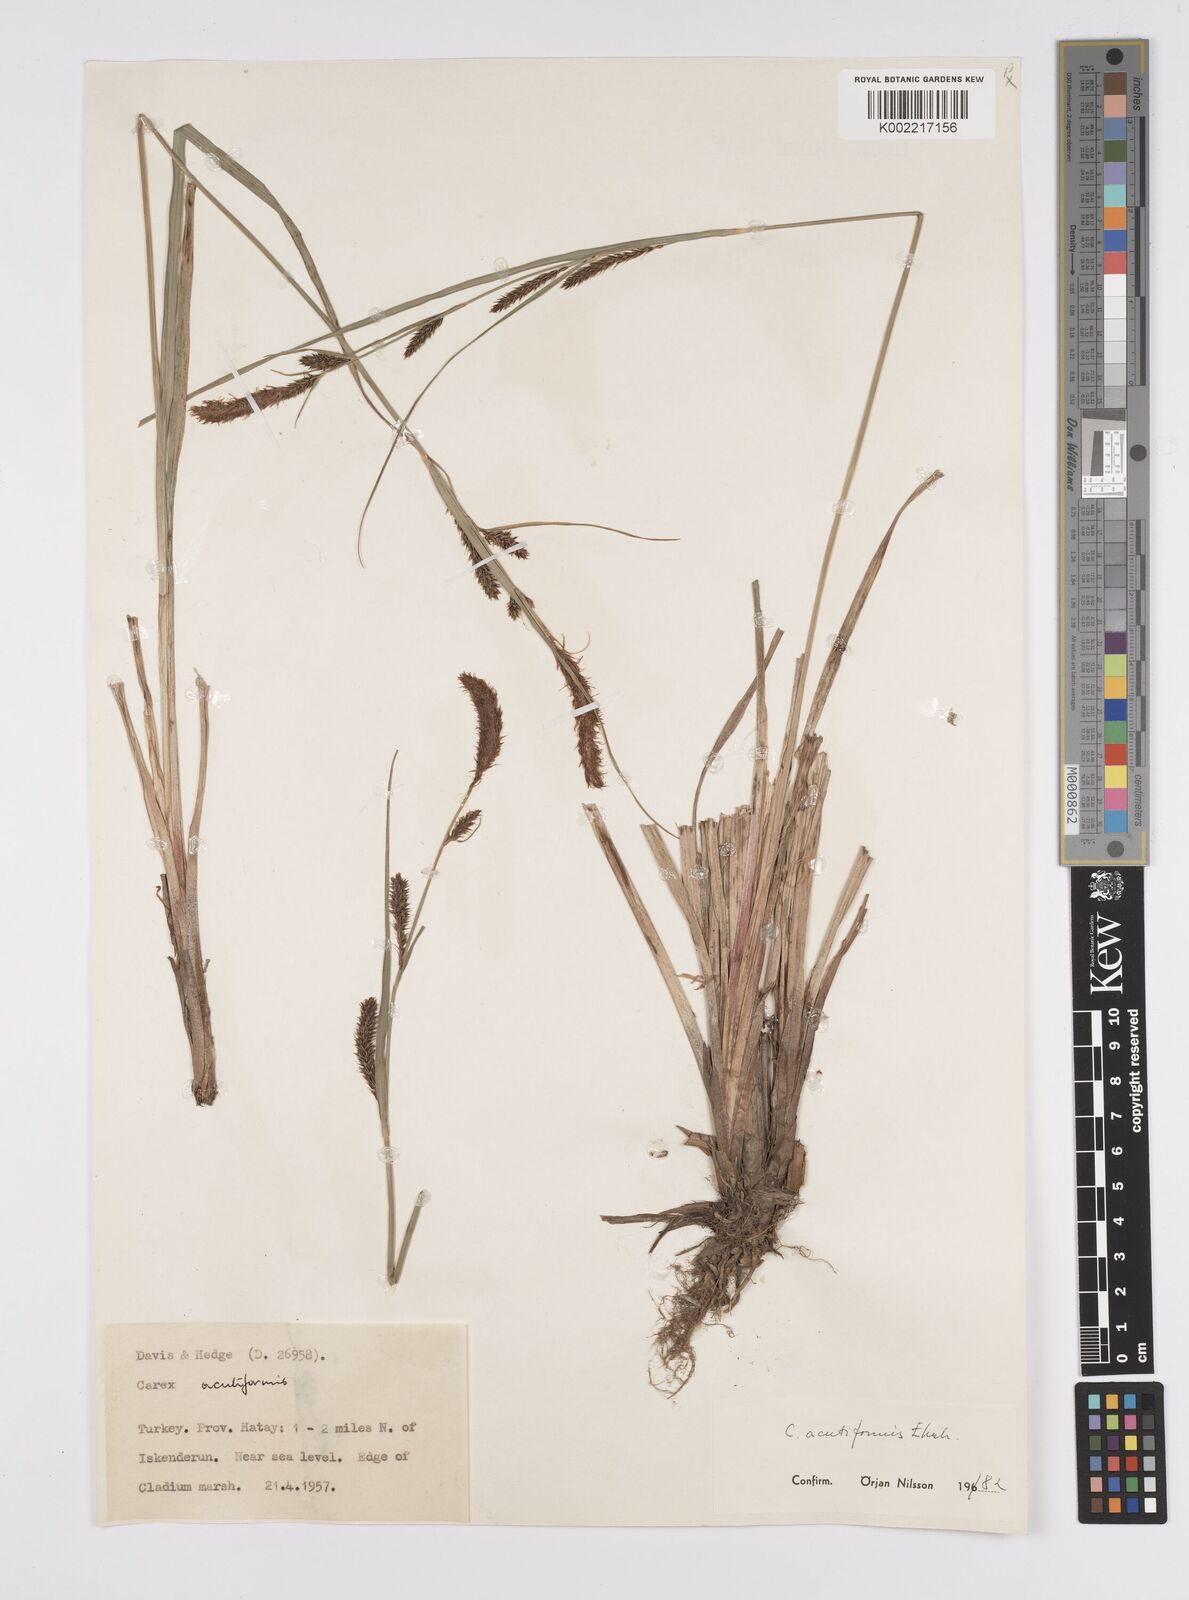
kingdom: Plantae
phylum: Tracheophyta
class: Liliopsida
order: Poales
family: Cyperaceae
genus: Carex
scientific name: Carex acutiformis
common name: Lesser pond-sedge
